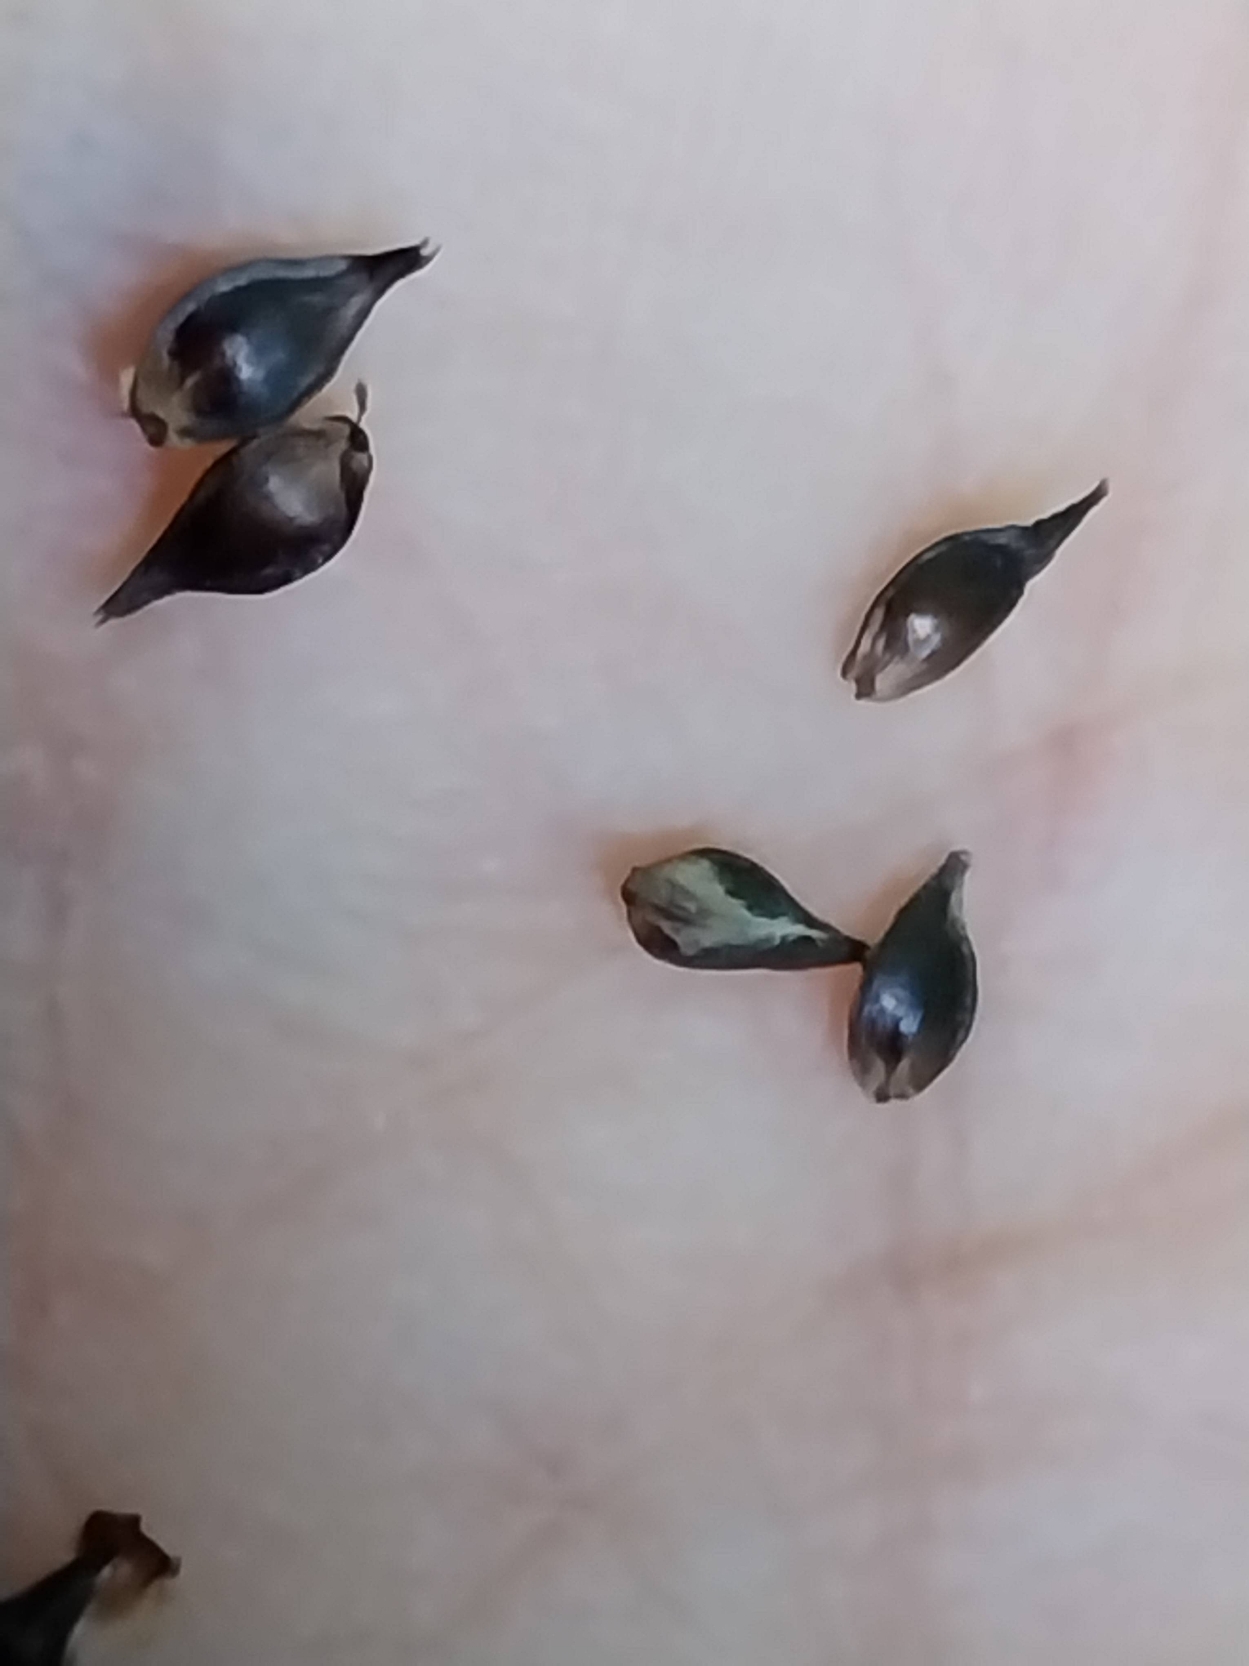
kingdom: Plantae
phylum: Tracheophyta
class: Liliopsida
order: Poales
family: Cyperaceae
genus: Carex
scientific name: Carex leersii
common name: Mellembrudt star (underart)
